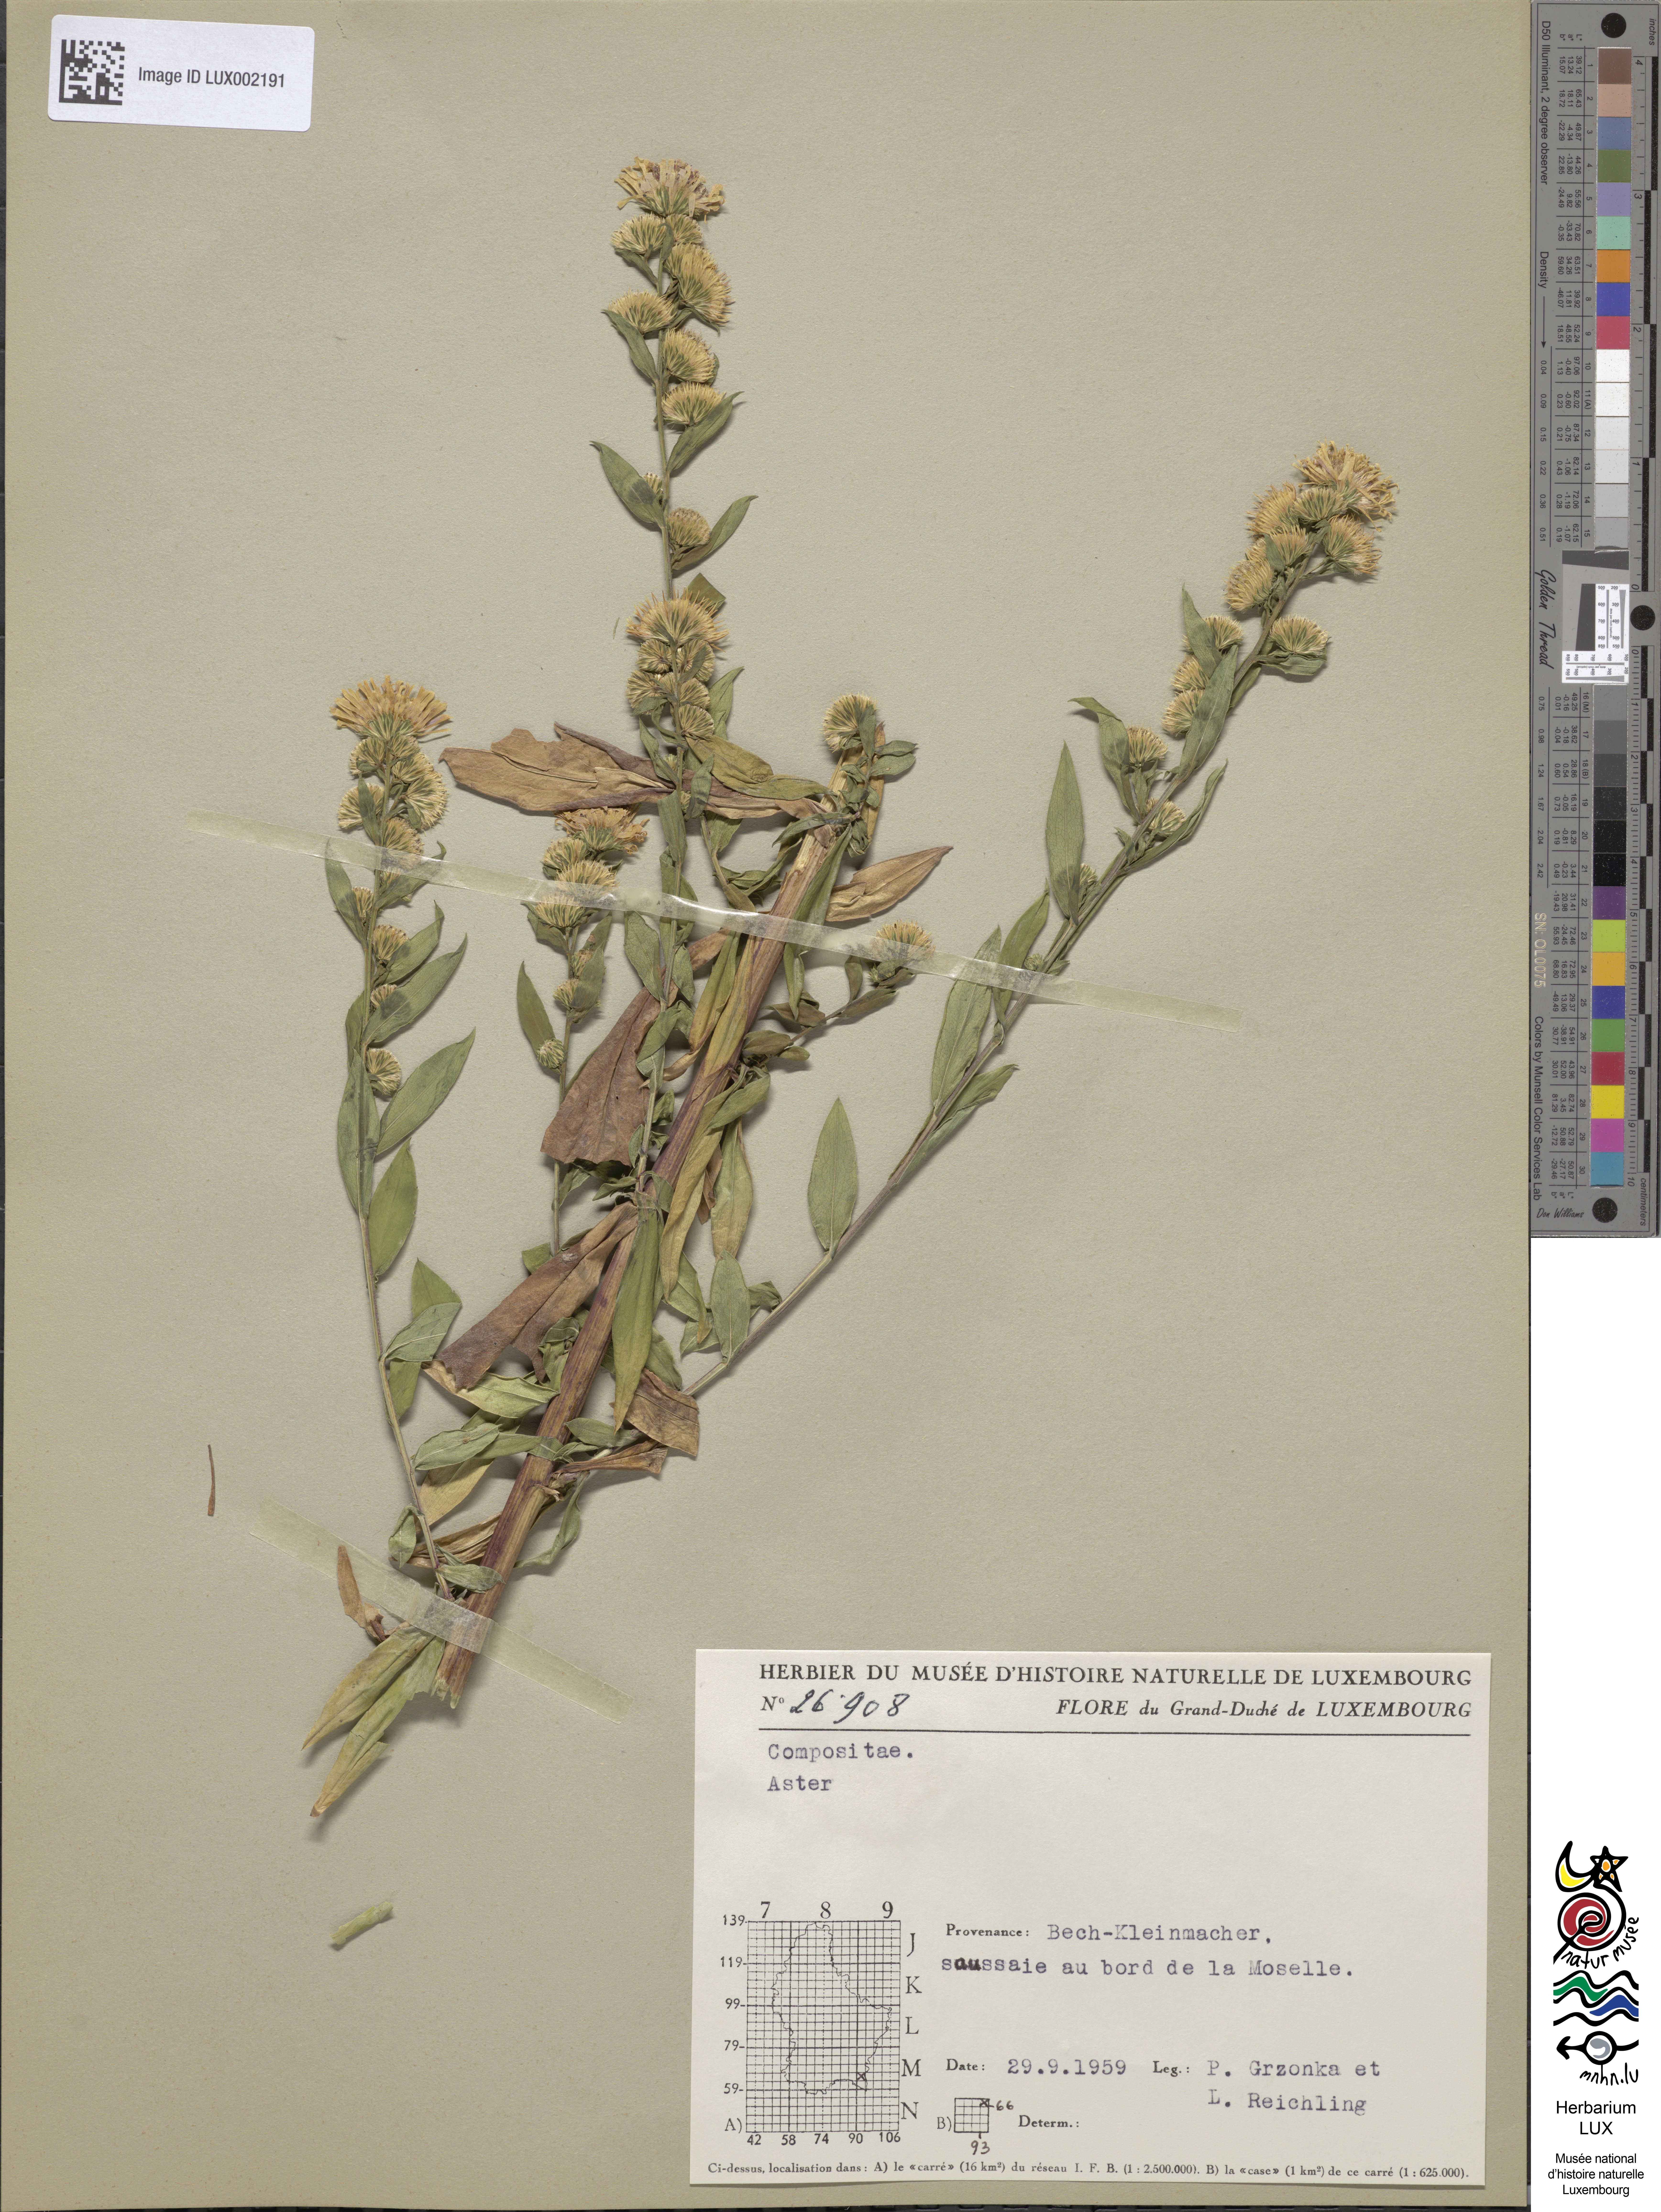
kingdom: Plantae
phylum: Tracheophyta
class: Magnoliopsida
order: Asterales
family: Asteraceae
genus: Aster
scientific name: Aster
